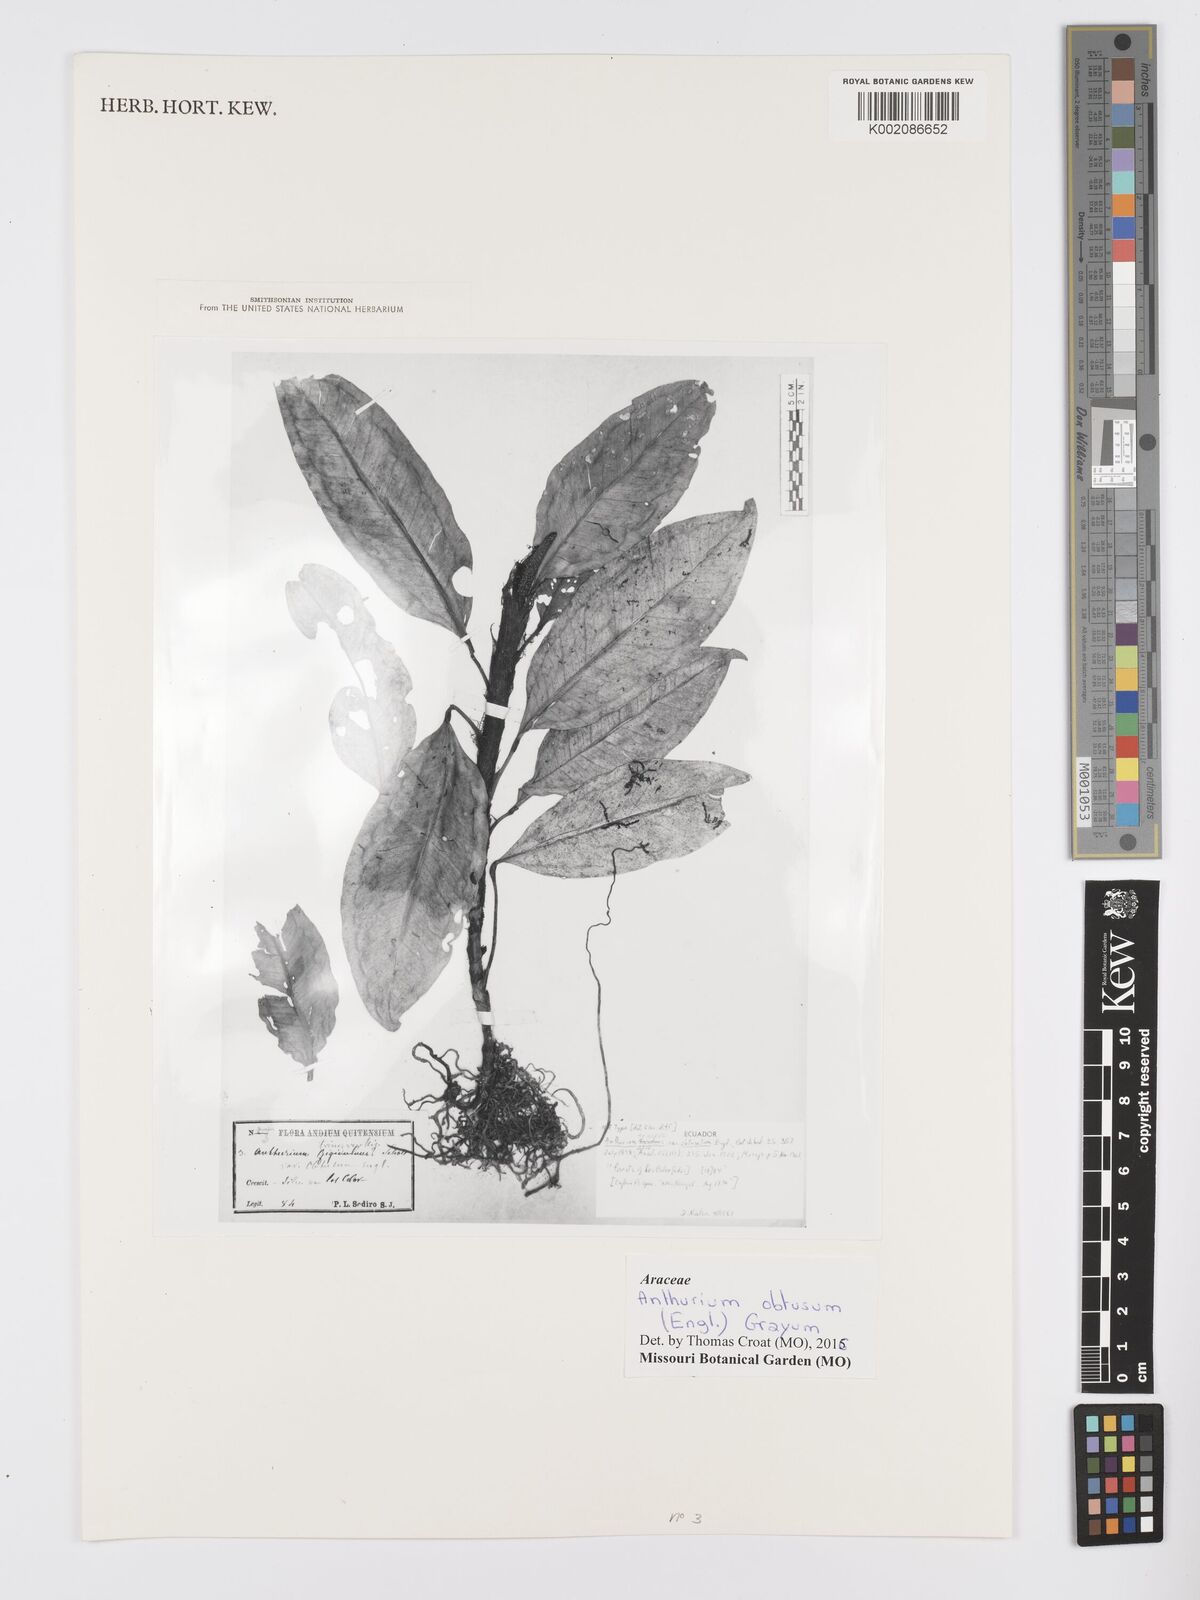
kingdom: Plantae
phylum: Tracheophyta
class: Liliopsida
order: Alismatales
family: Araceae
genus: Anthurium
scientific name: Anthurium obtusum
